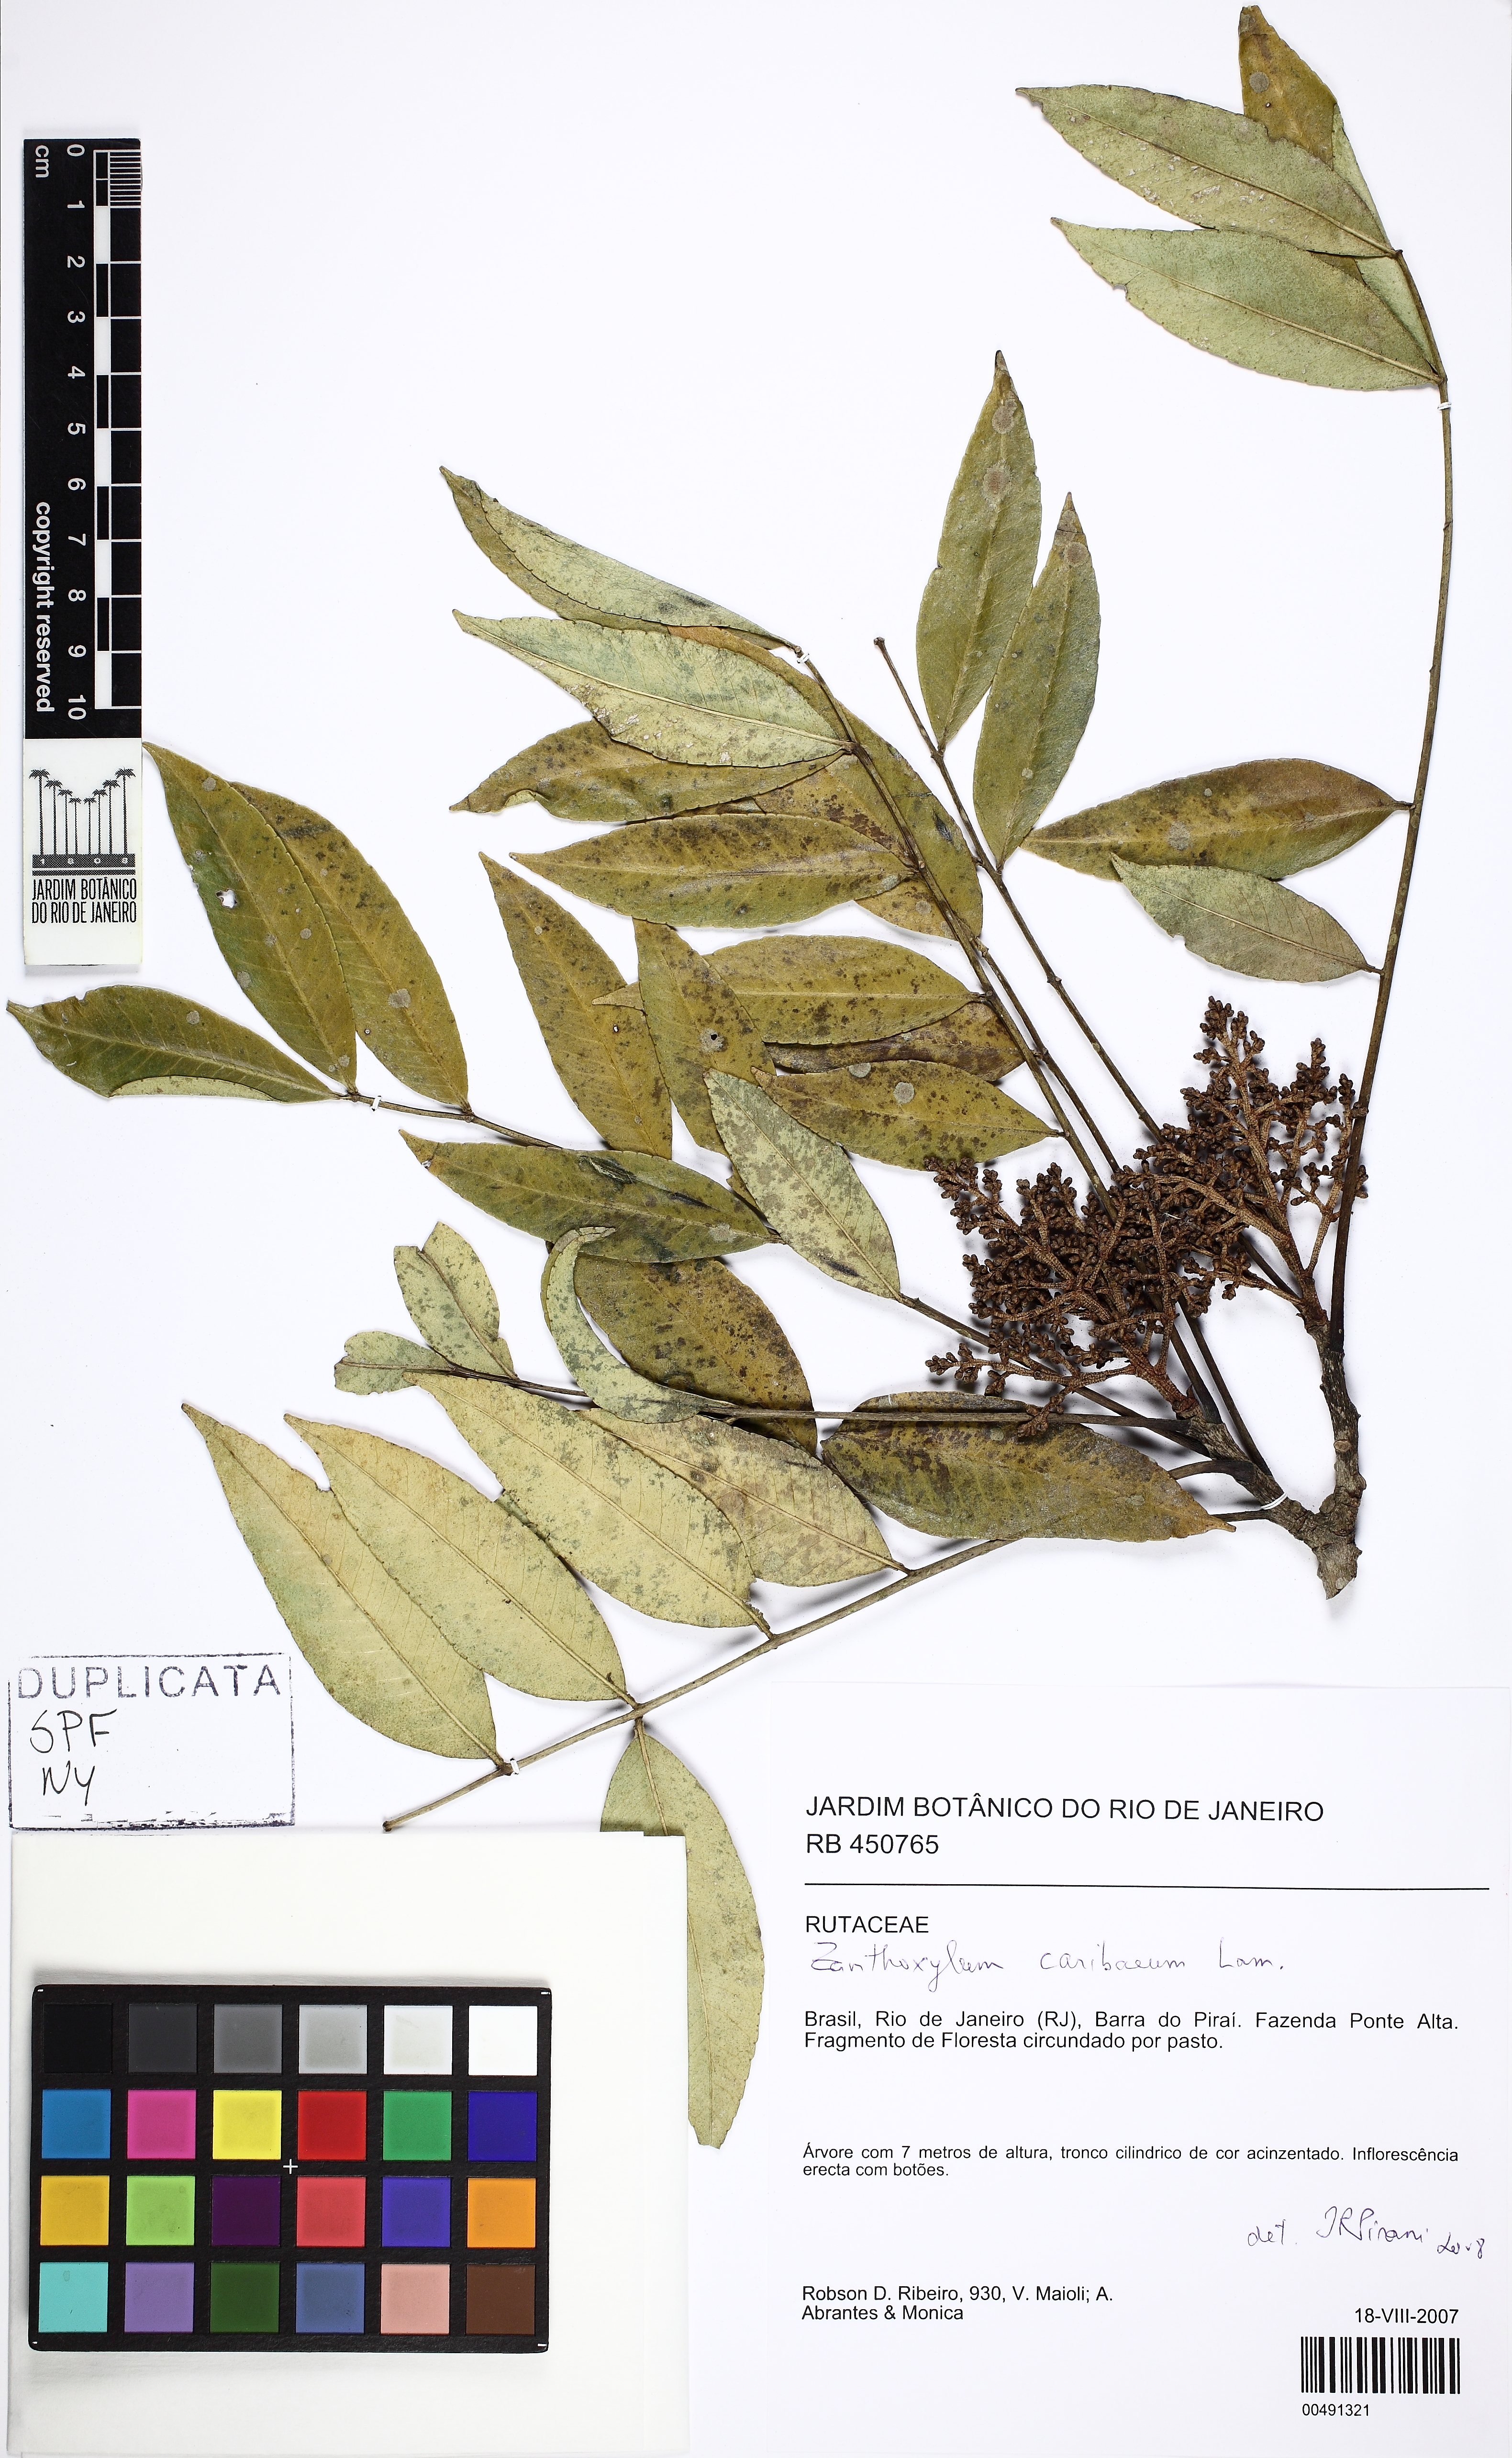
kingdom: Plantae
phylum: Tracheophyta
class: Magnoliopsida
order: Sapindales
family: Rutaceae
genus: Zanthoxylum
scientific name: Zanthoxylum caribaeum
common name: Prickly yellow
